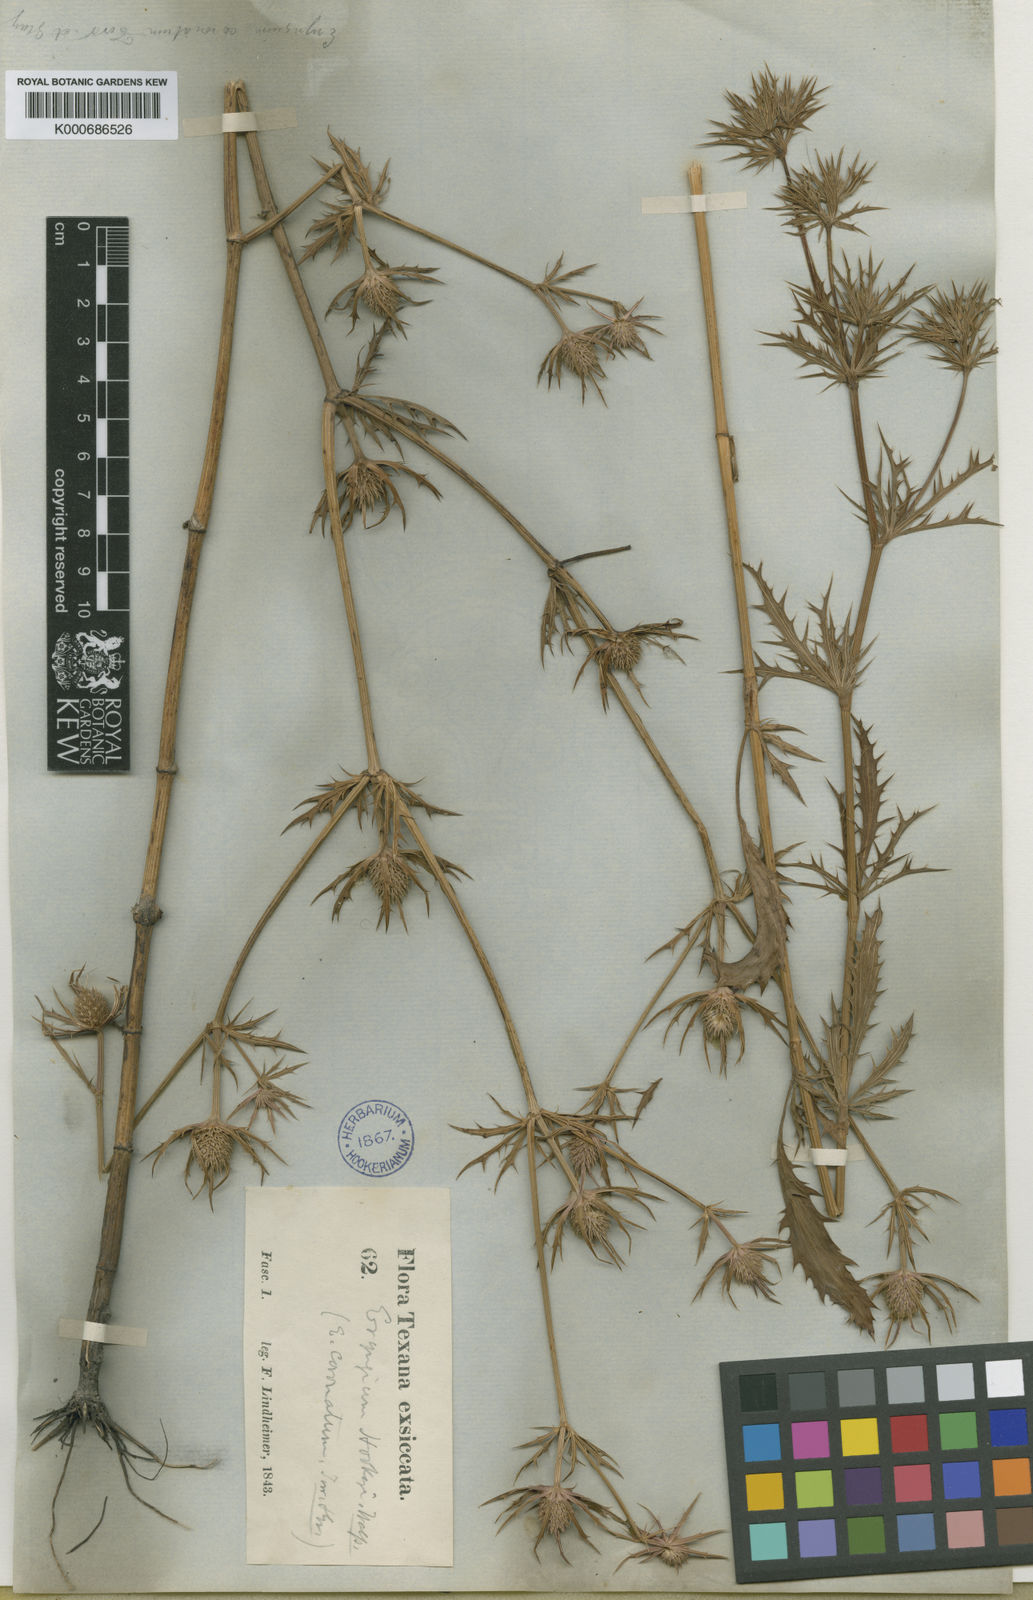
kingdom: Plantae
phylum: Tracheophyta
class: Magnoliopsida
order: Apiales
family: Apiaceae
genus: Eryngium
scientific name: Eryngium hookeri
